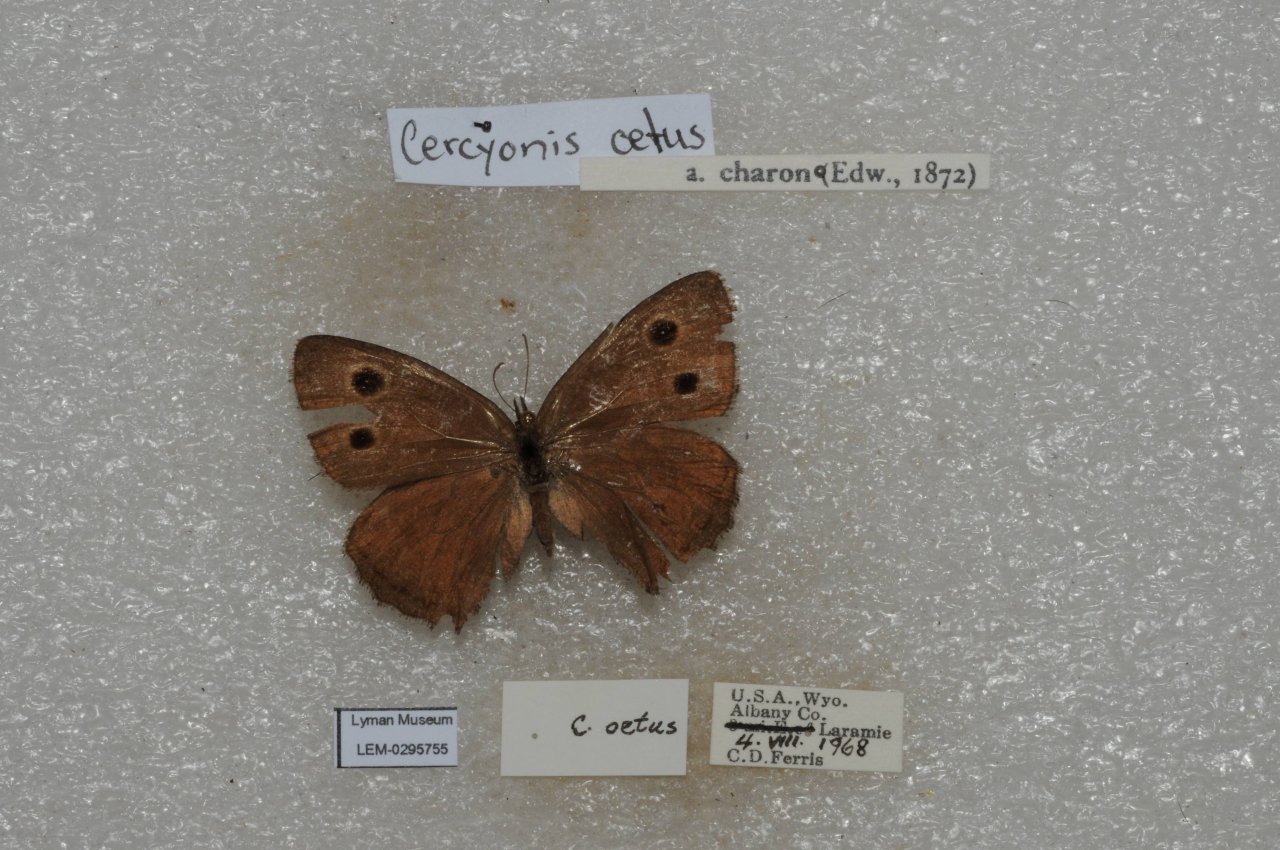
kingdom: Animalia
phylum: Arthropoda
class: Insecta
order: Lepidoptera
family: Nymphalidae
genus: Cercyonis
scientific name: Cercyonis oetus
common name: Small Wood-Nymph
